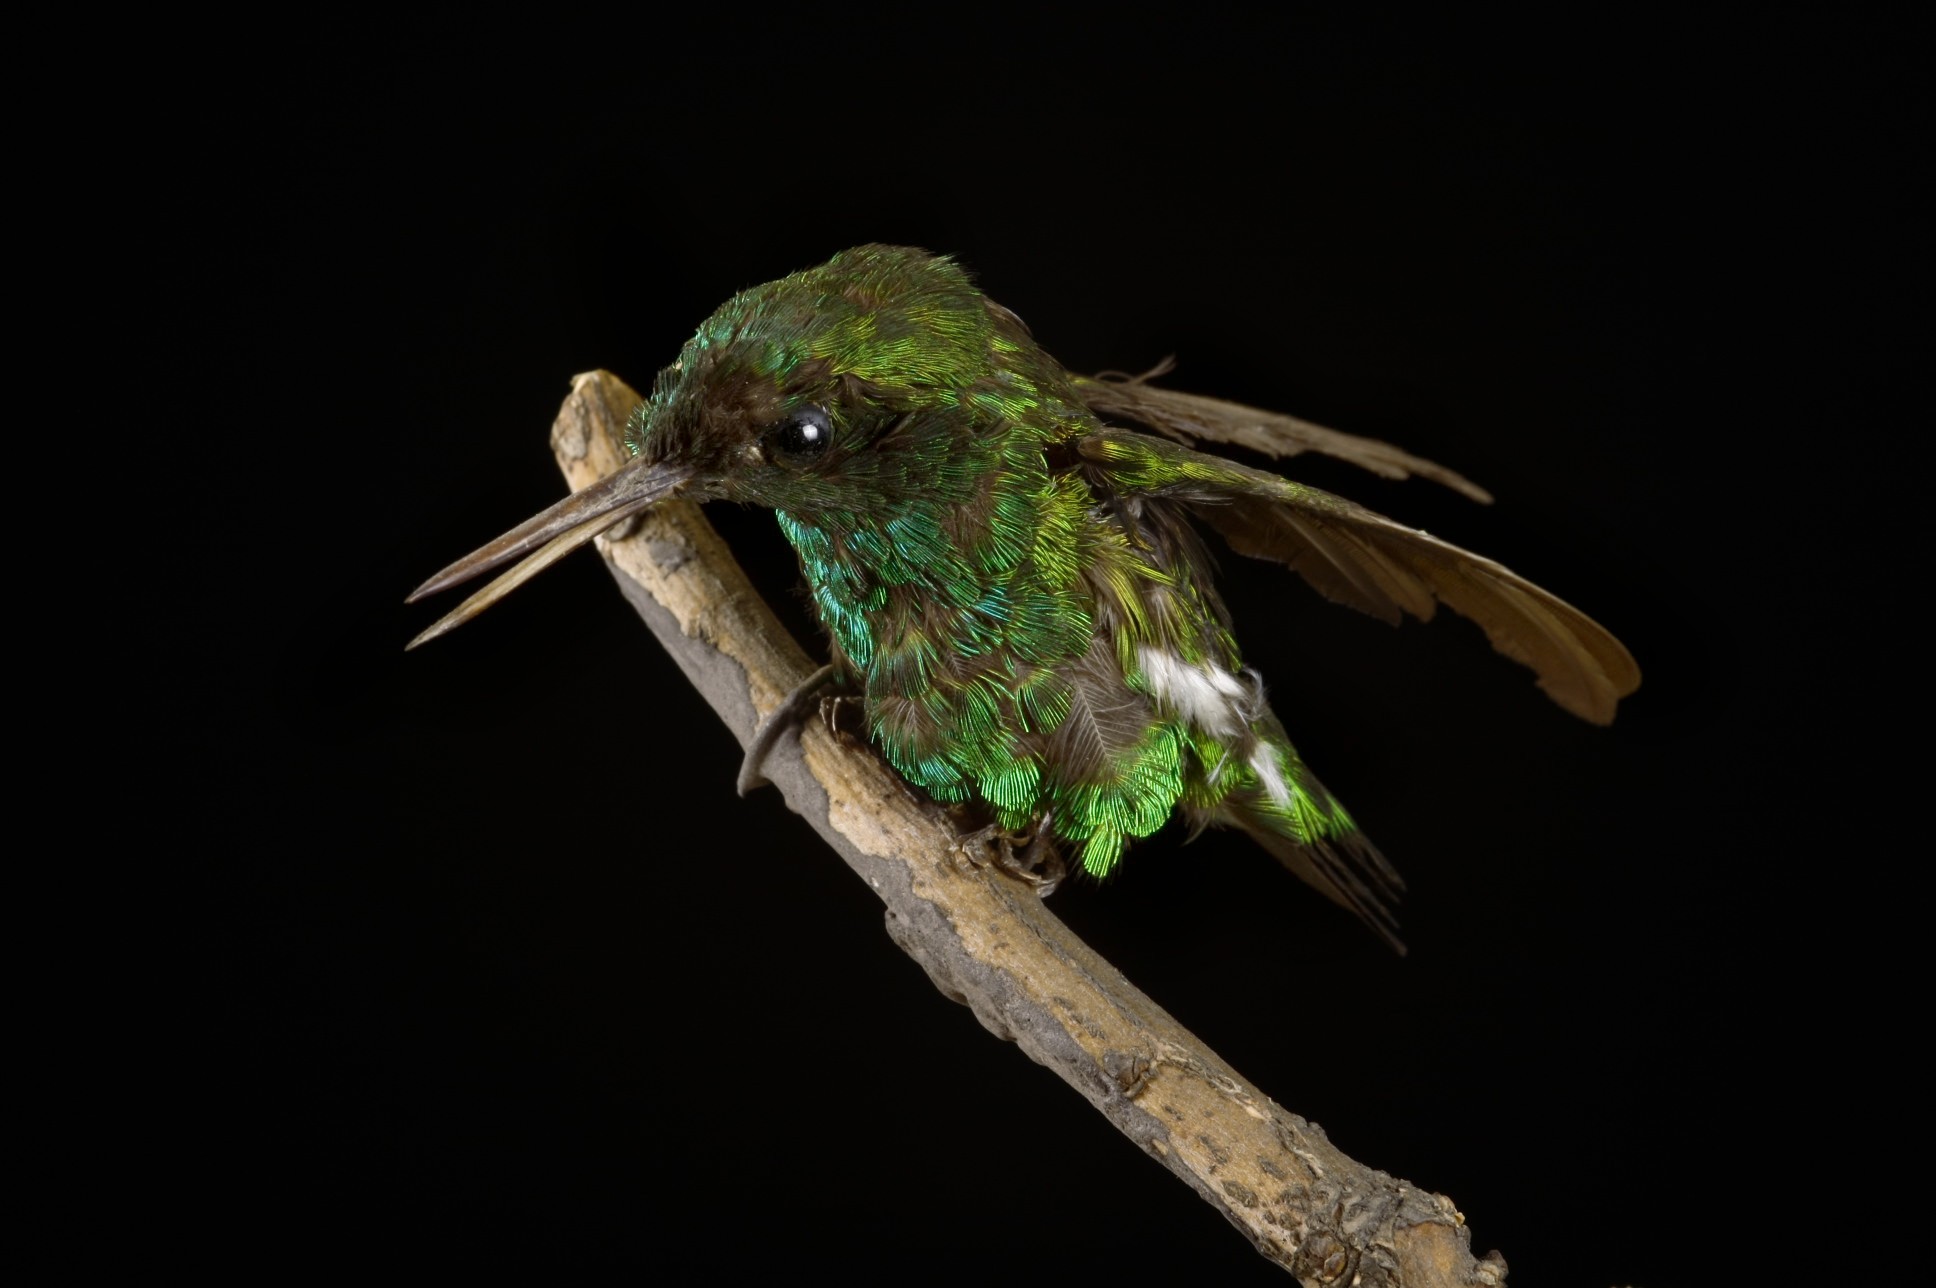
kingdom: Animalia
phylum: Chordata
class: Aves
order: Apodiformes
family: Trochilidae
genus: Chlorostilbon
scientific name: Chlorostilbon poortmani
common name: Short-tailed emerald
